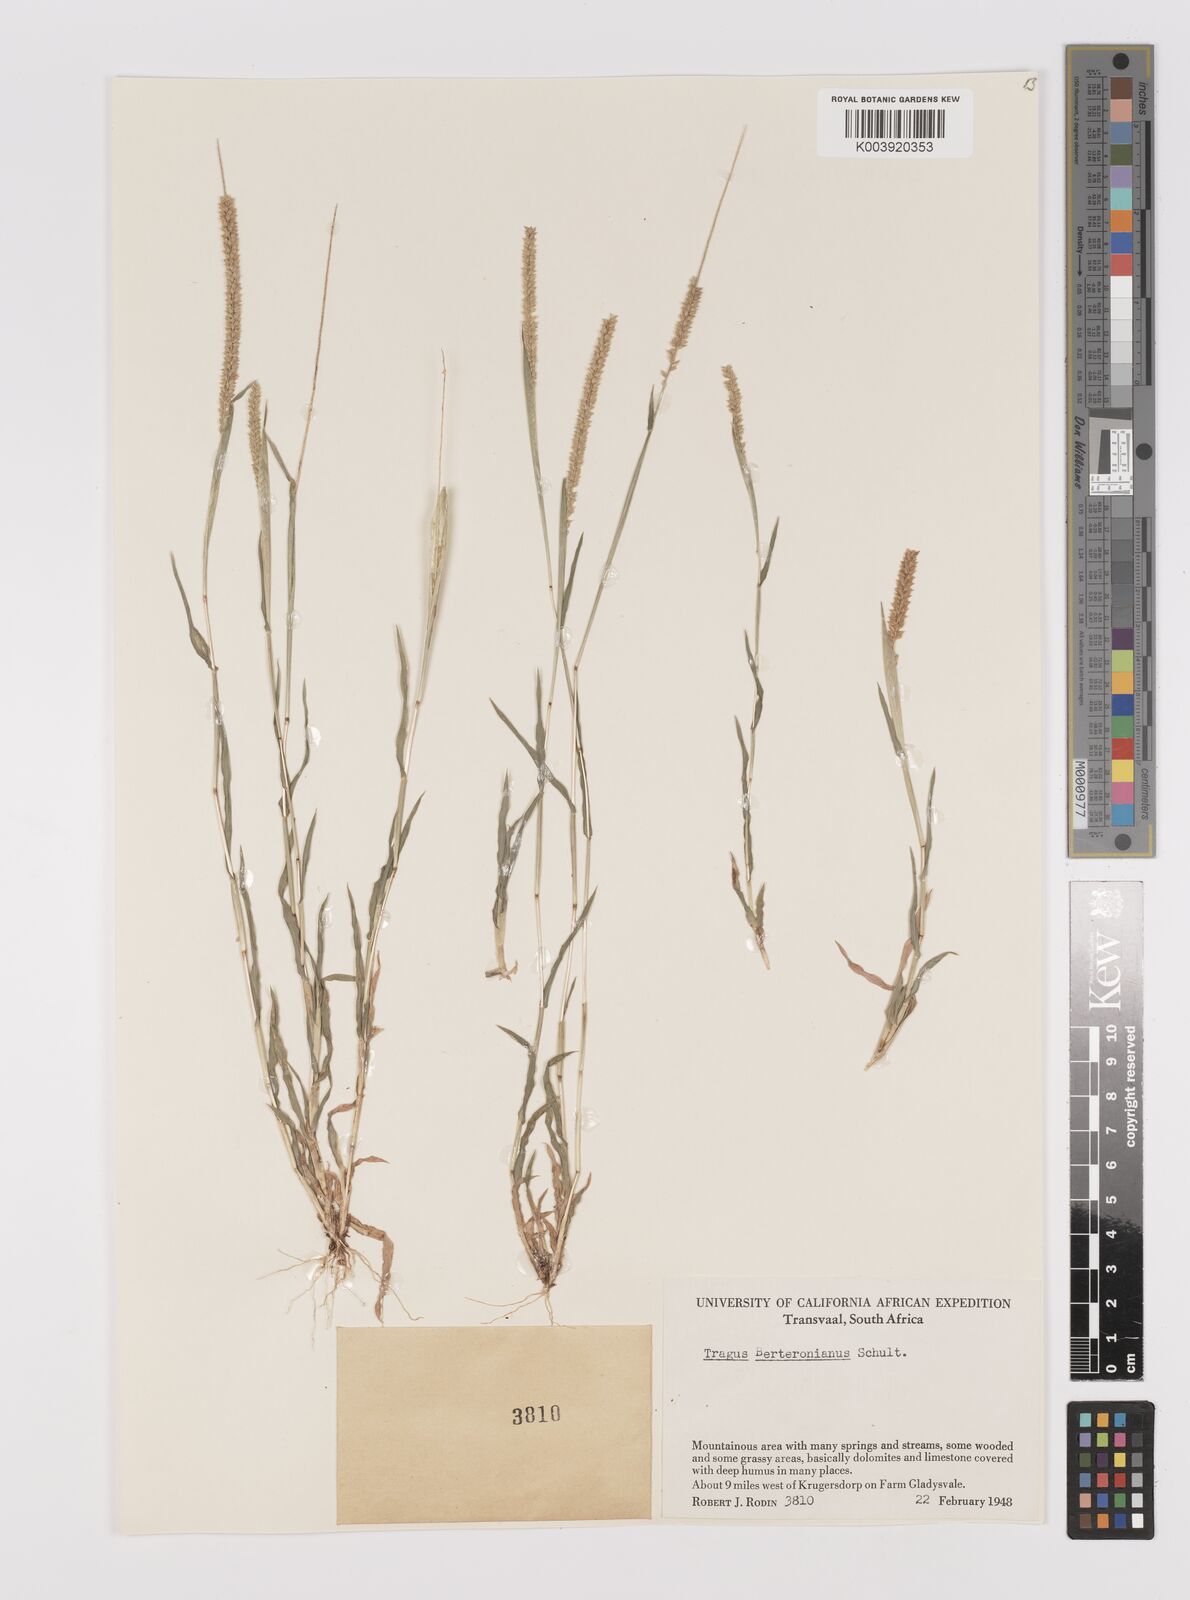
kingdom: Plantae
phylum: Tracheophyta
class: Liliopsida
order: Poales
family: Poaceae
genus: Tragus
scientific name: Tragus berteronianus
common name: African bur-grass
